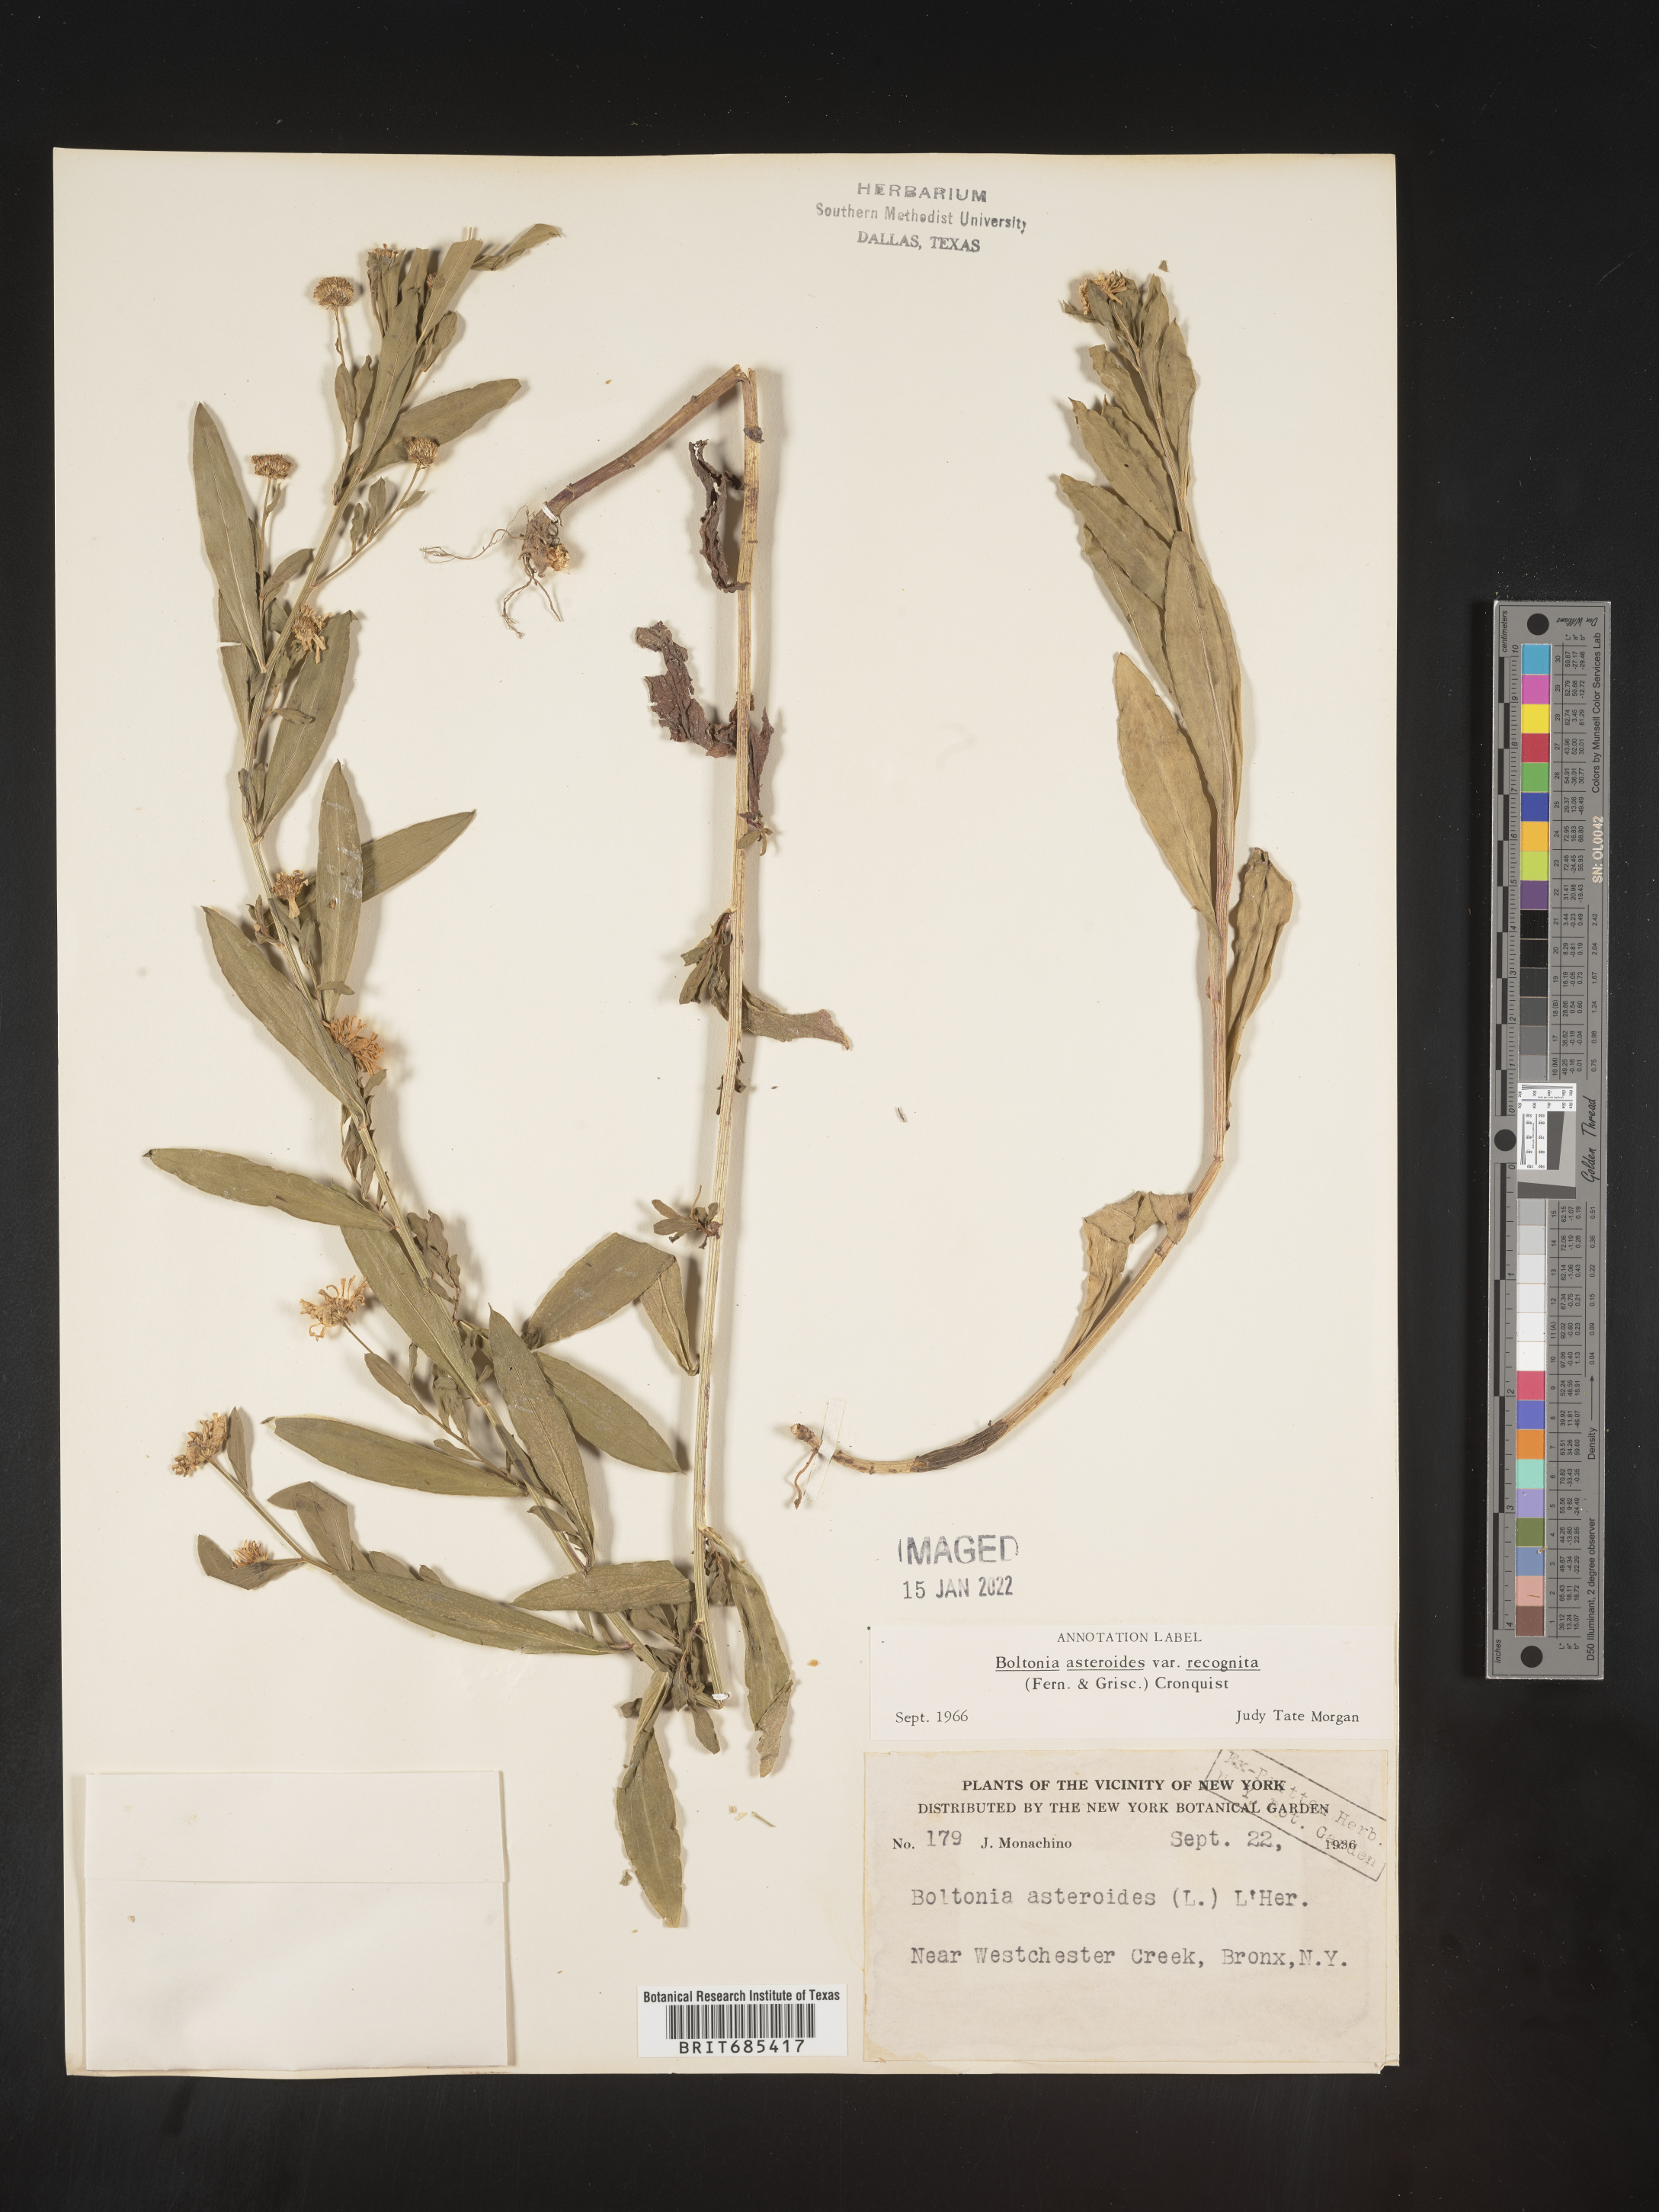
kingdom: Plantae
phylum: Tracheophyta
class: Magnoliopsida
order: Asterales
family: Asteraceae
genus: Boltonia
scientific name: Boltonia asteroides
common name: False chamomile
